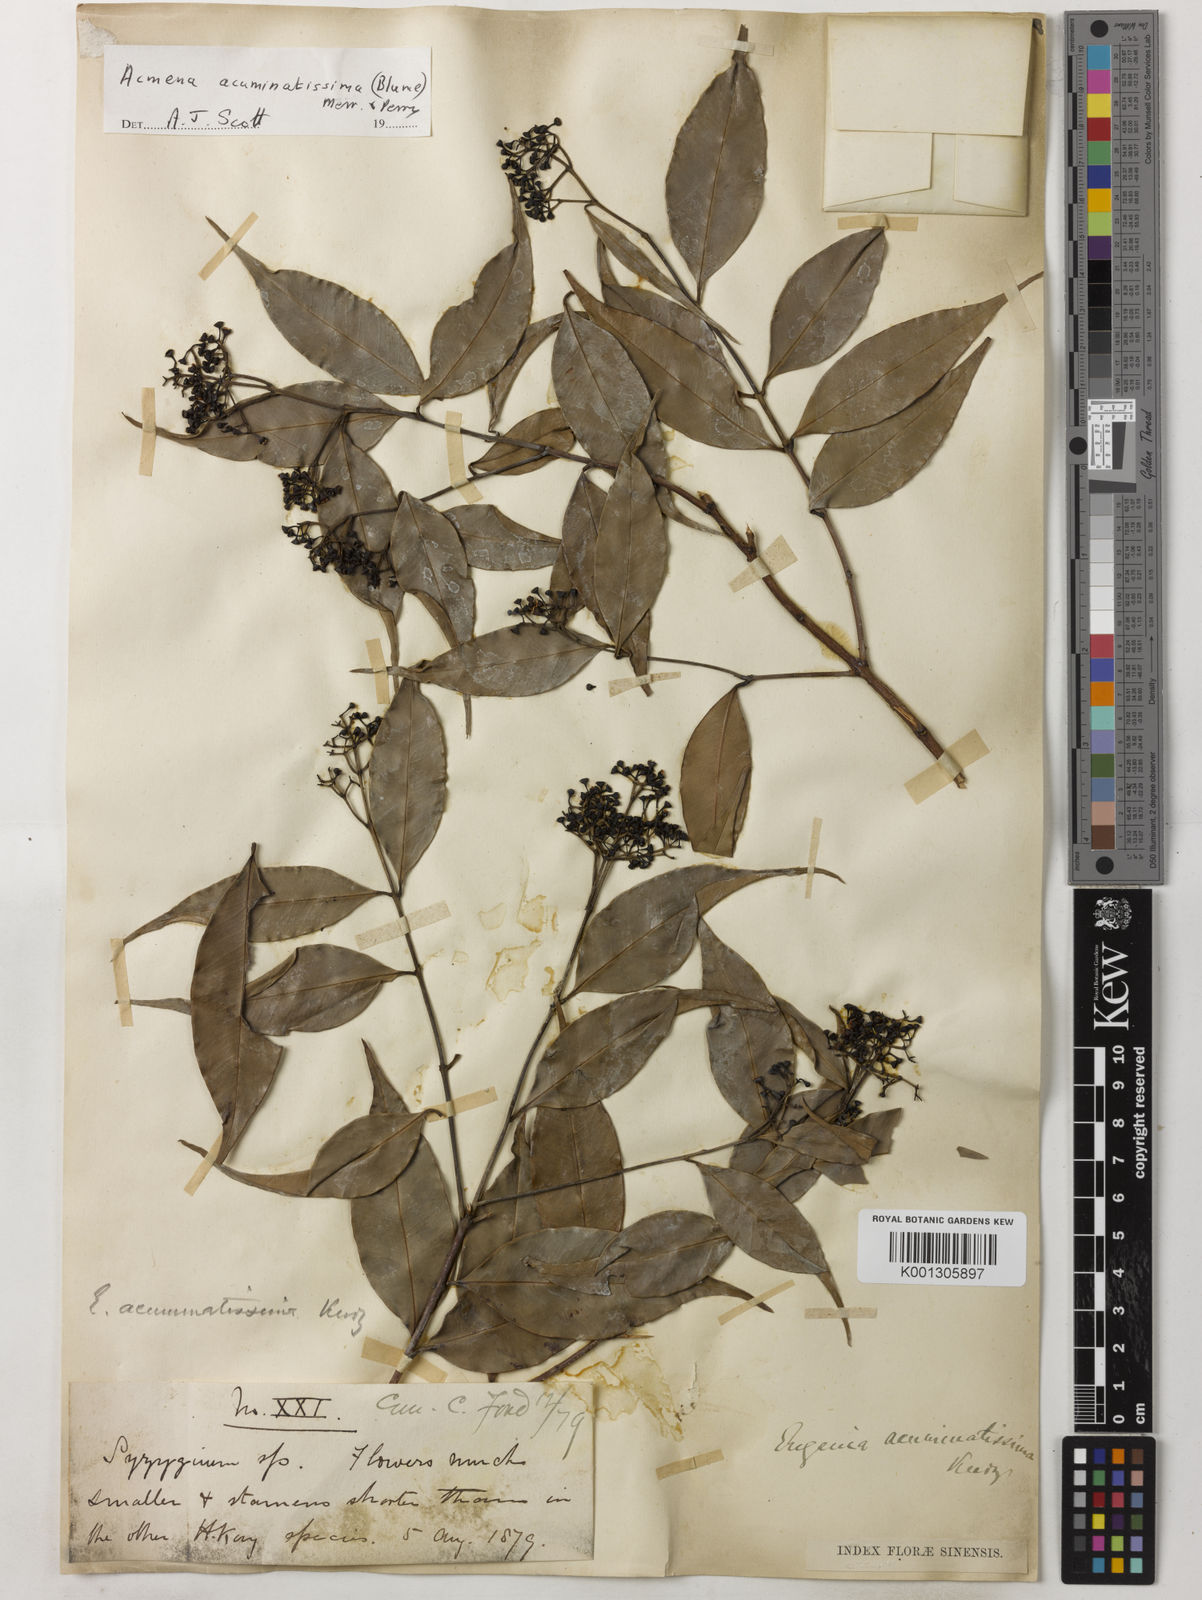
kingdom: Plantae
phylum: Tracheophyta
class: Magnoliopsida
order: Myrtales
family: Myrtaceae
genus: Syzygium
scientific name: Syzygium acuminatissimum
